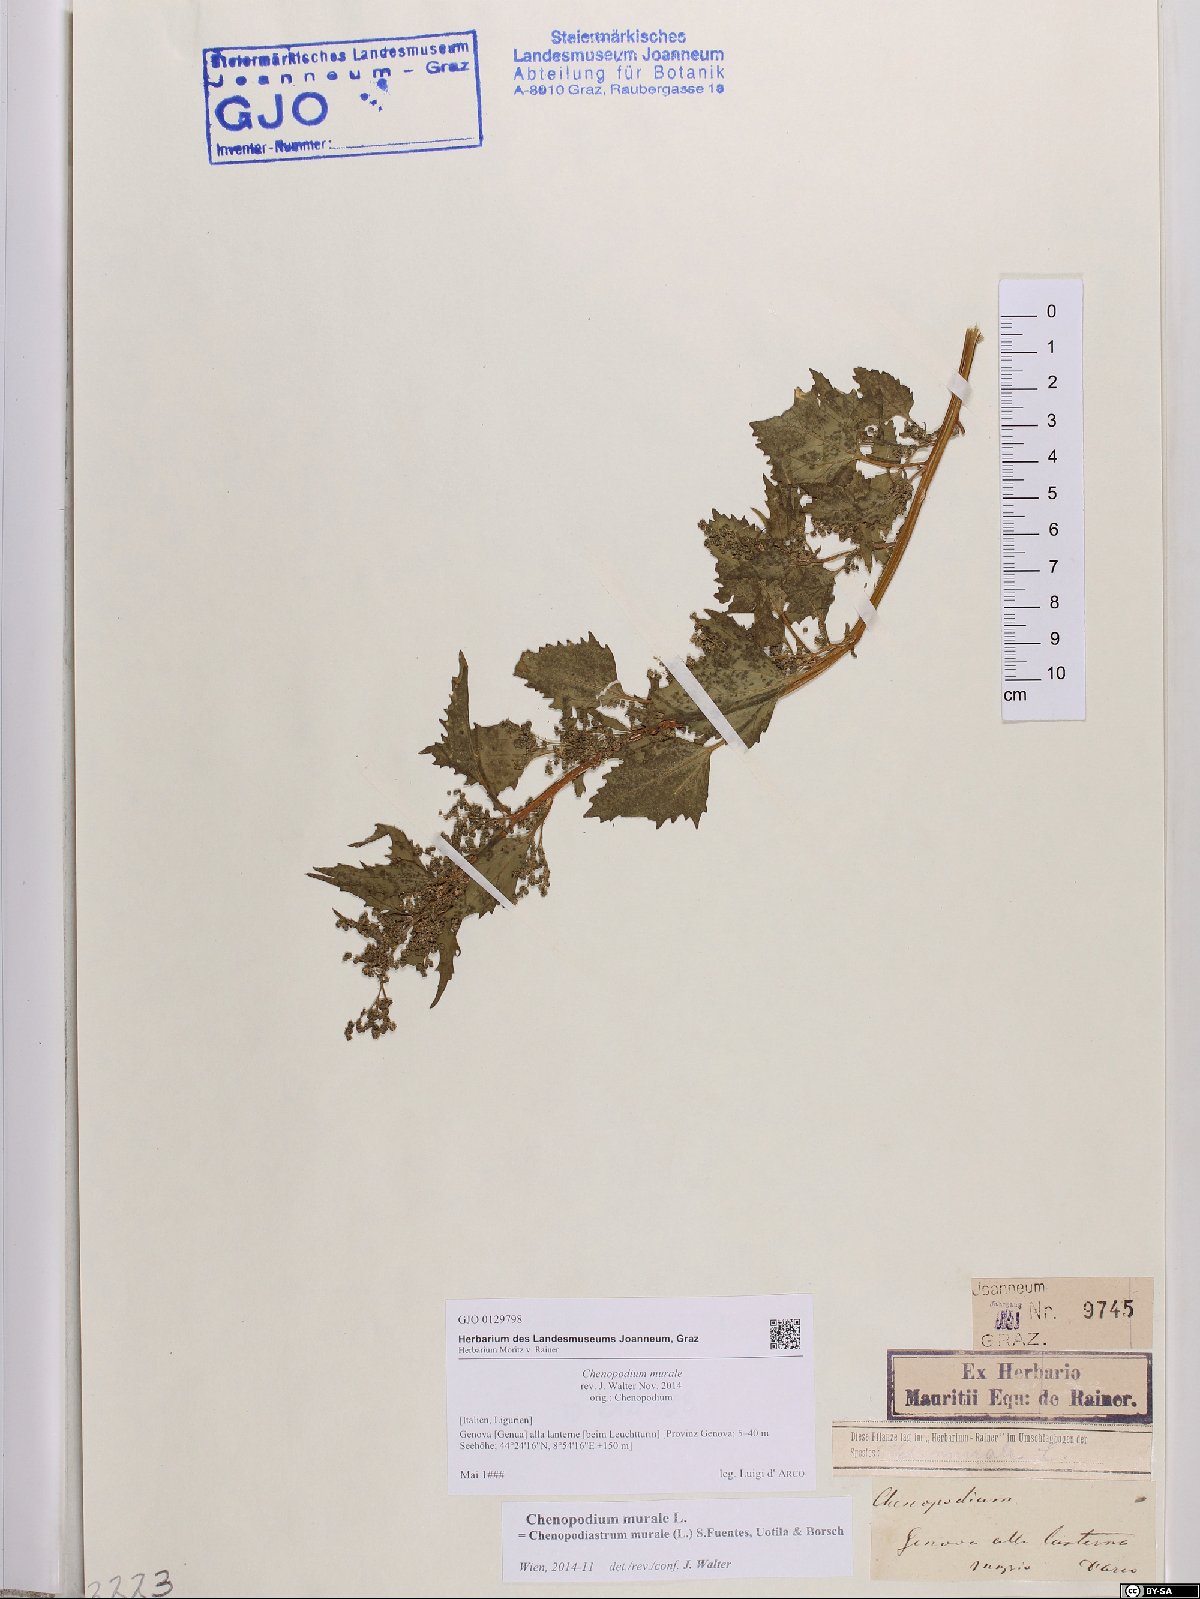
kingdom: Plantae
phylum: Tracheophyta
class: Magnoliopsida
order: Caryophyllales
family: Amaranthaceae
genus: Chenopodiastrum
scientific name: Chenopodiastrum murale
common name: Sowbane
